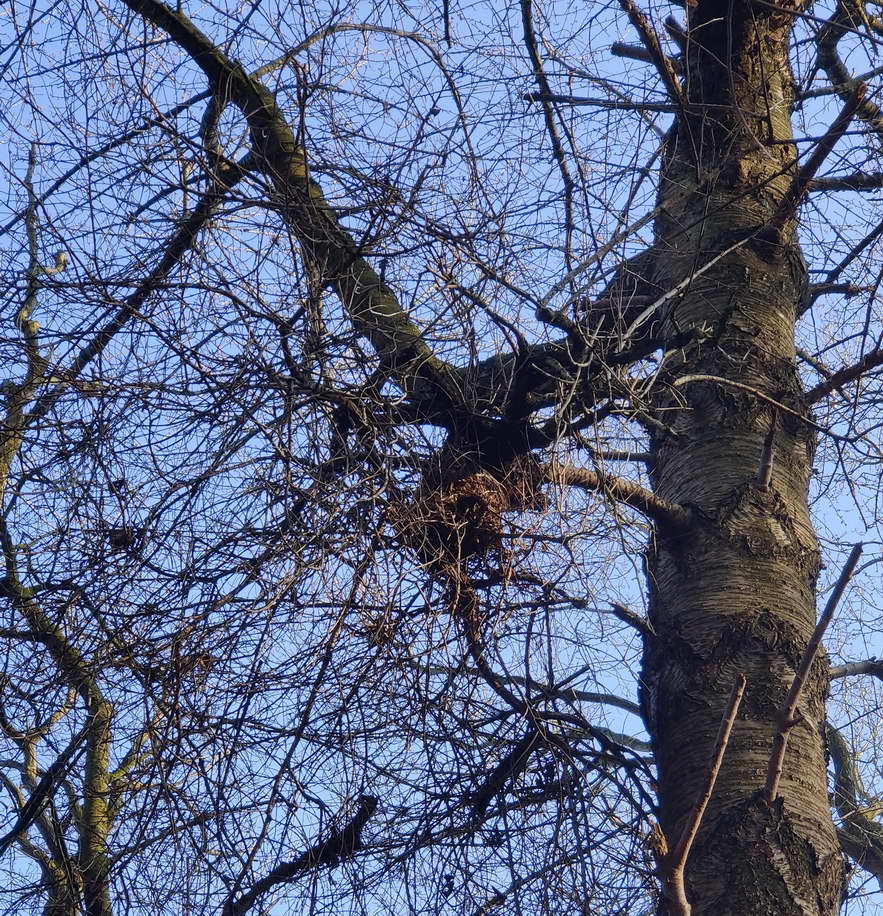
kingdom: Fungi
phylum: Ascomycota
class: Taphrinomycetes
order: Taphrinales
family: Taphrinaceae
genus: Taphrina
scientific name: Taphrina wiesneri
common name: Cherry leaf curl
